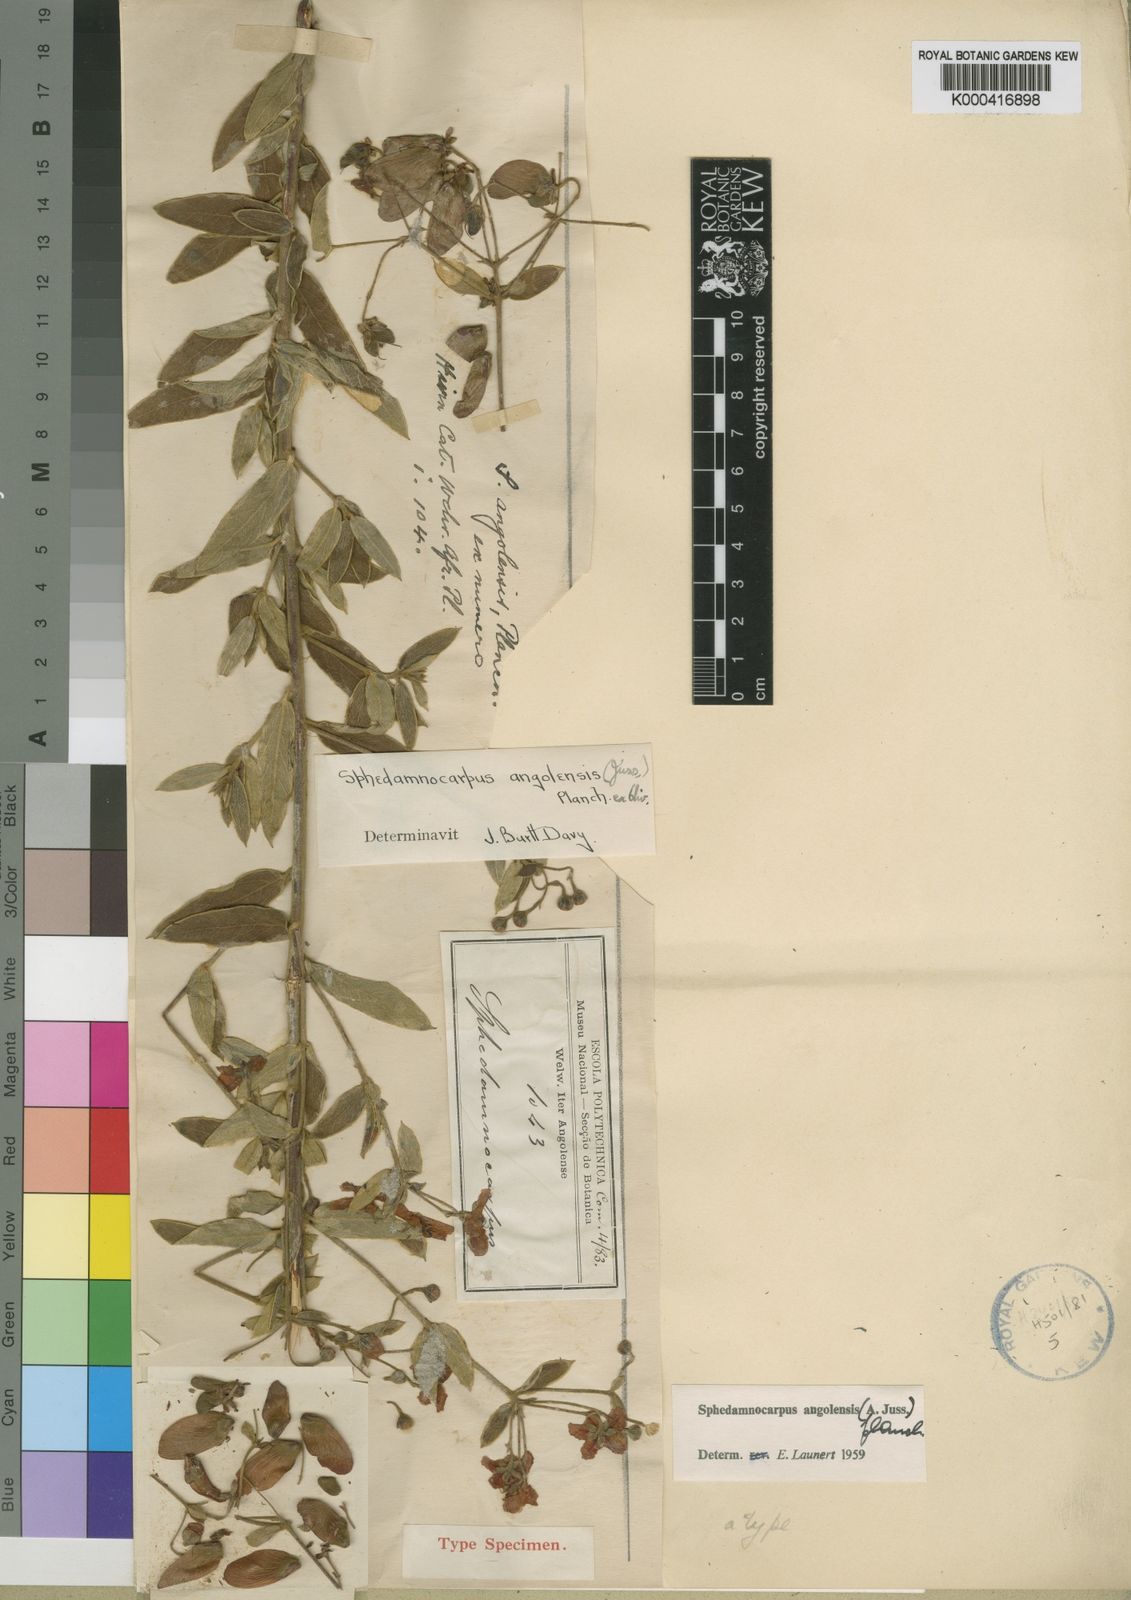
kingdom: Plantae
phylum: Tracheophyta
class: Magnoliopsida
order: Malpighiales
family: Malpighiaceae
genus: Sphedamnocarpus
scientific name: Sphedamnocarpus
